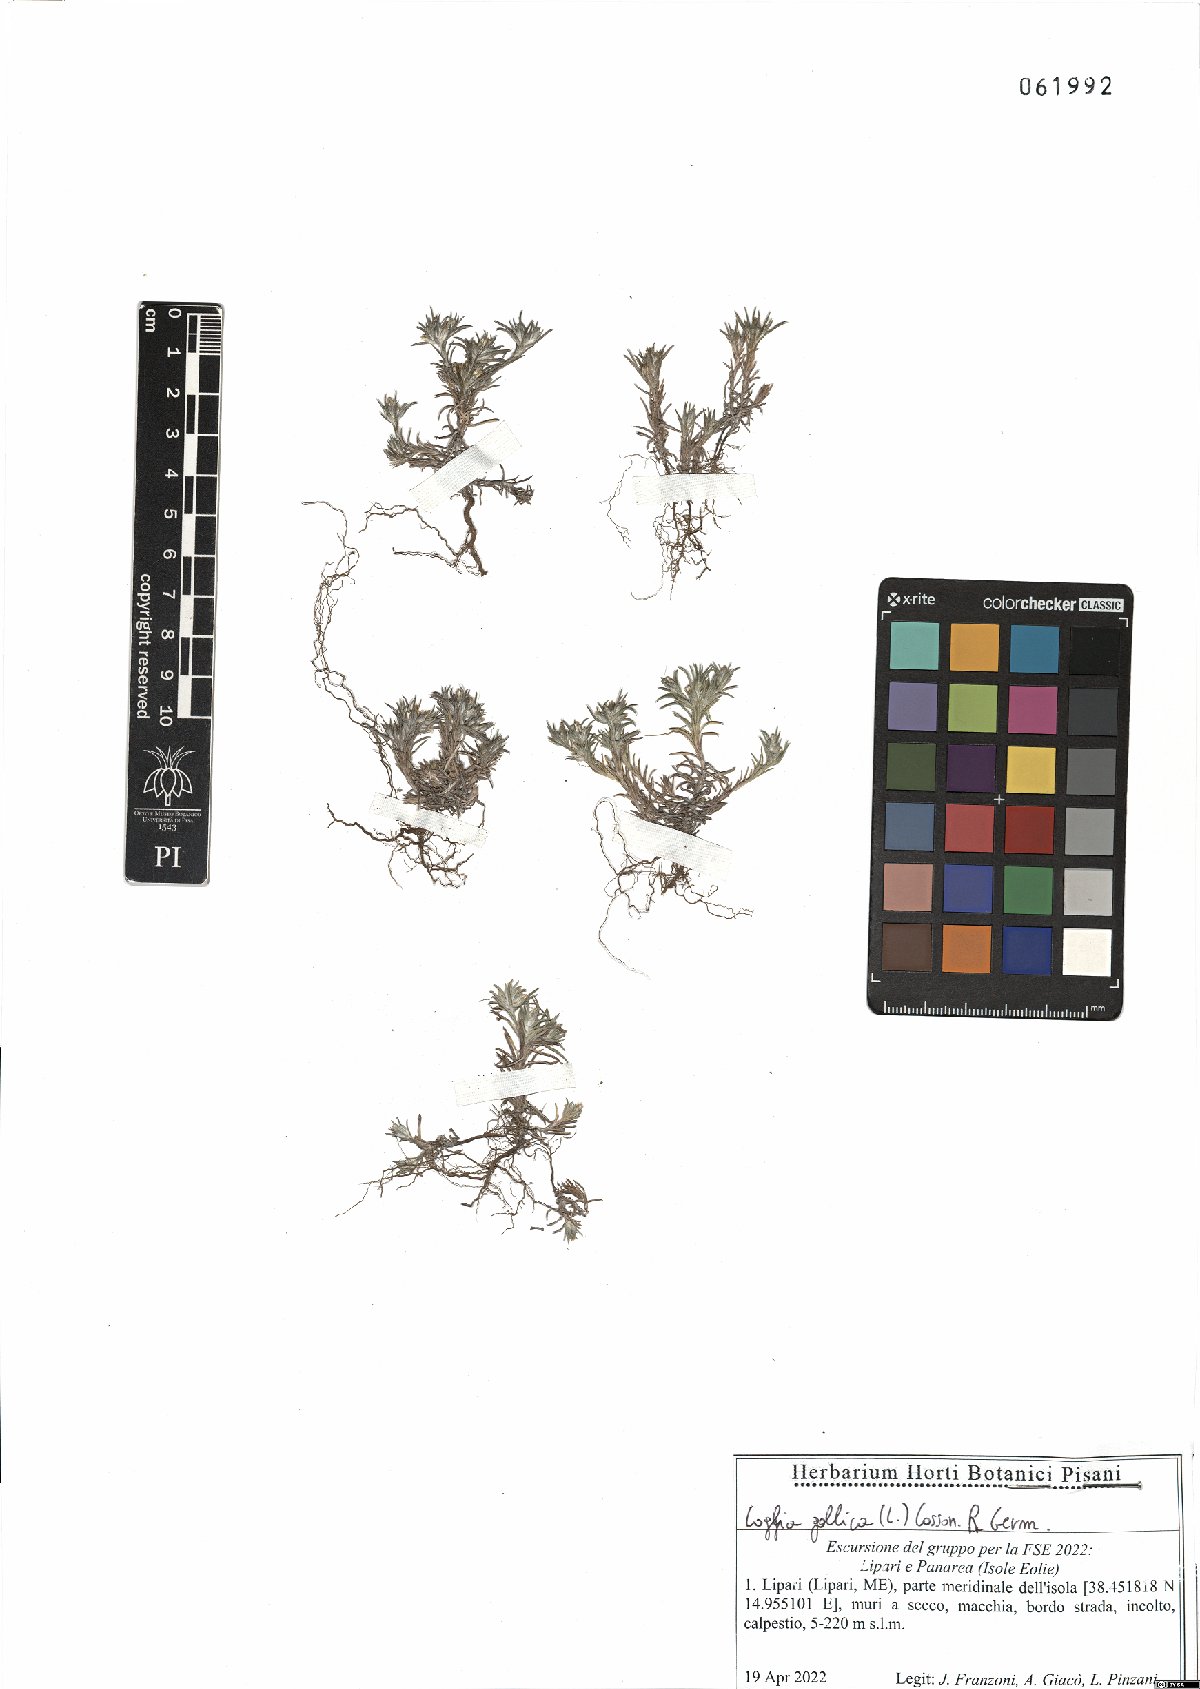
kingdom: Plantae
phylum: Tracheophyta
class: Magnoliopsida
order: Asterales
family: Asteraceae
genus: Logfia
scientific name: Logfia gallica
